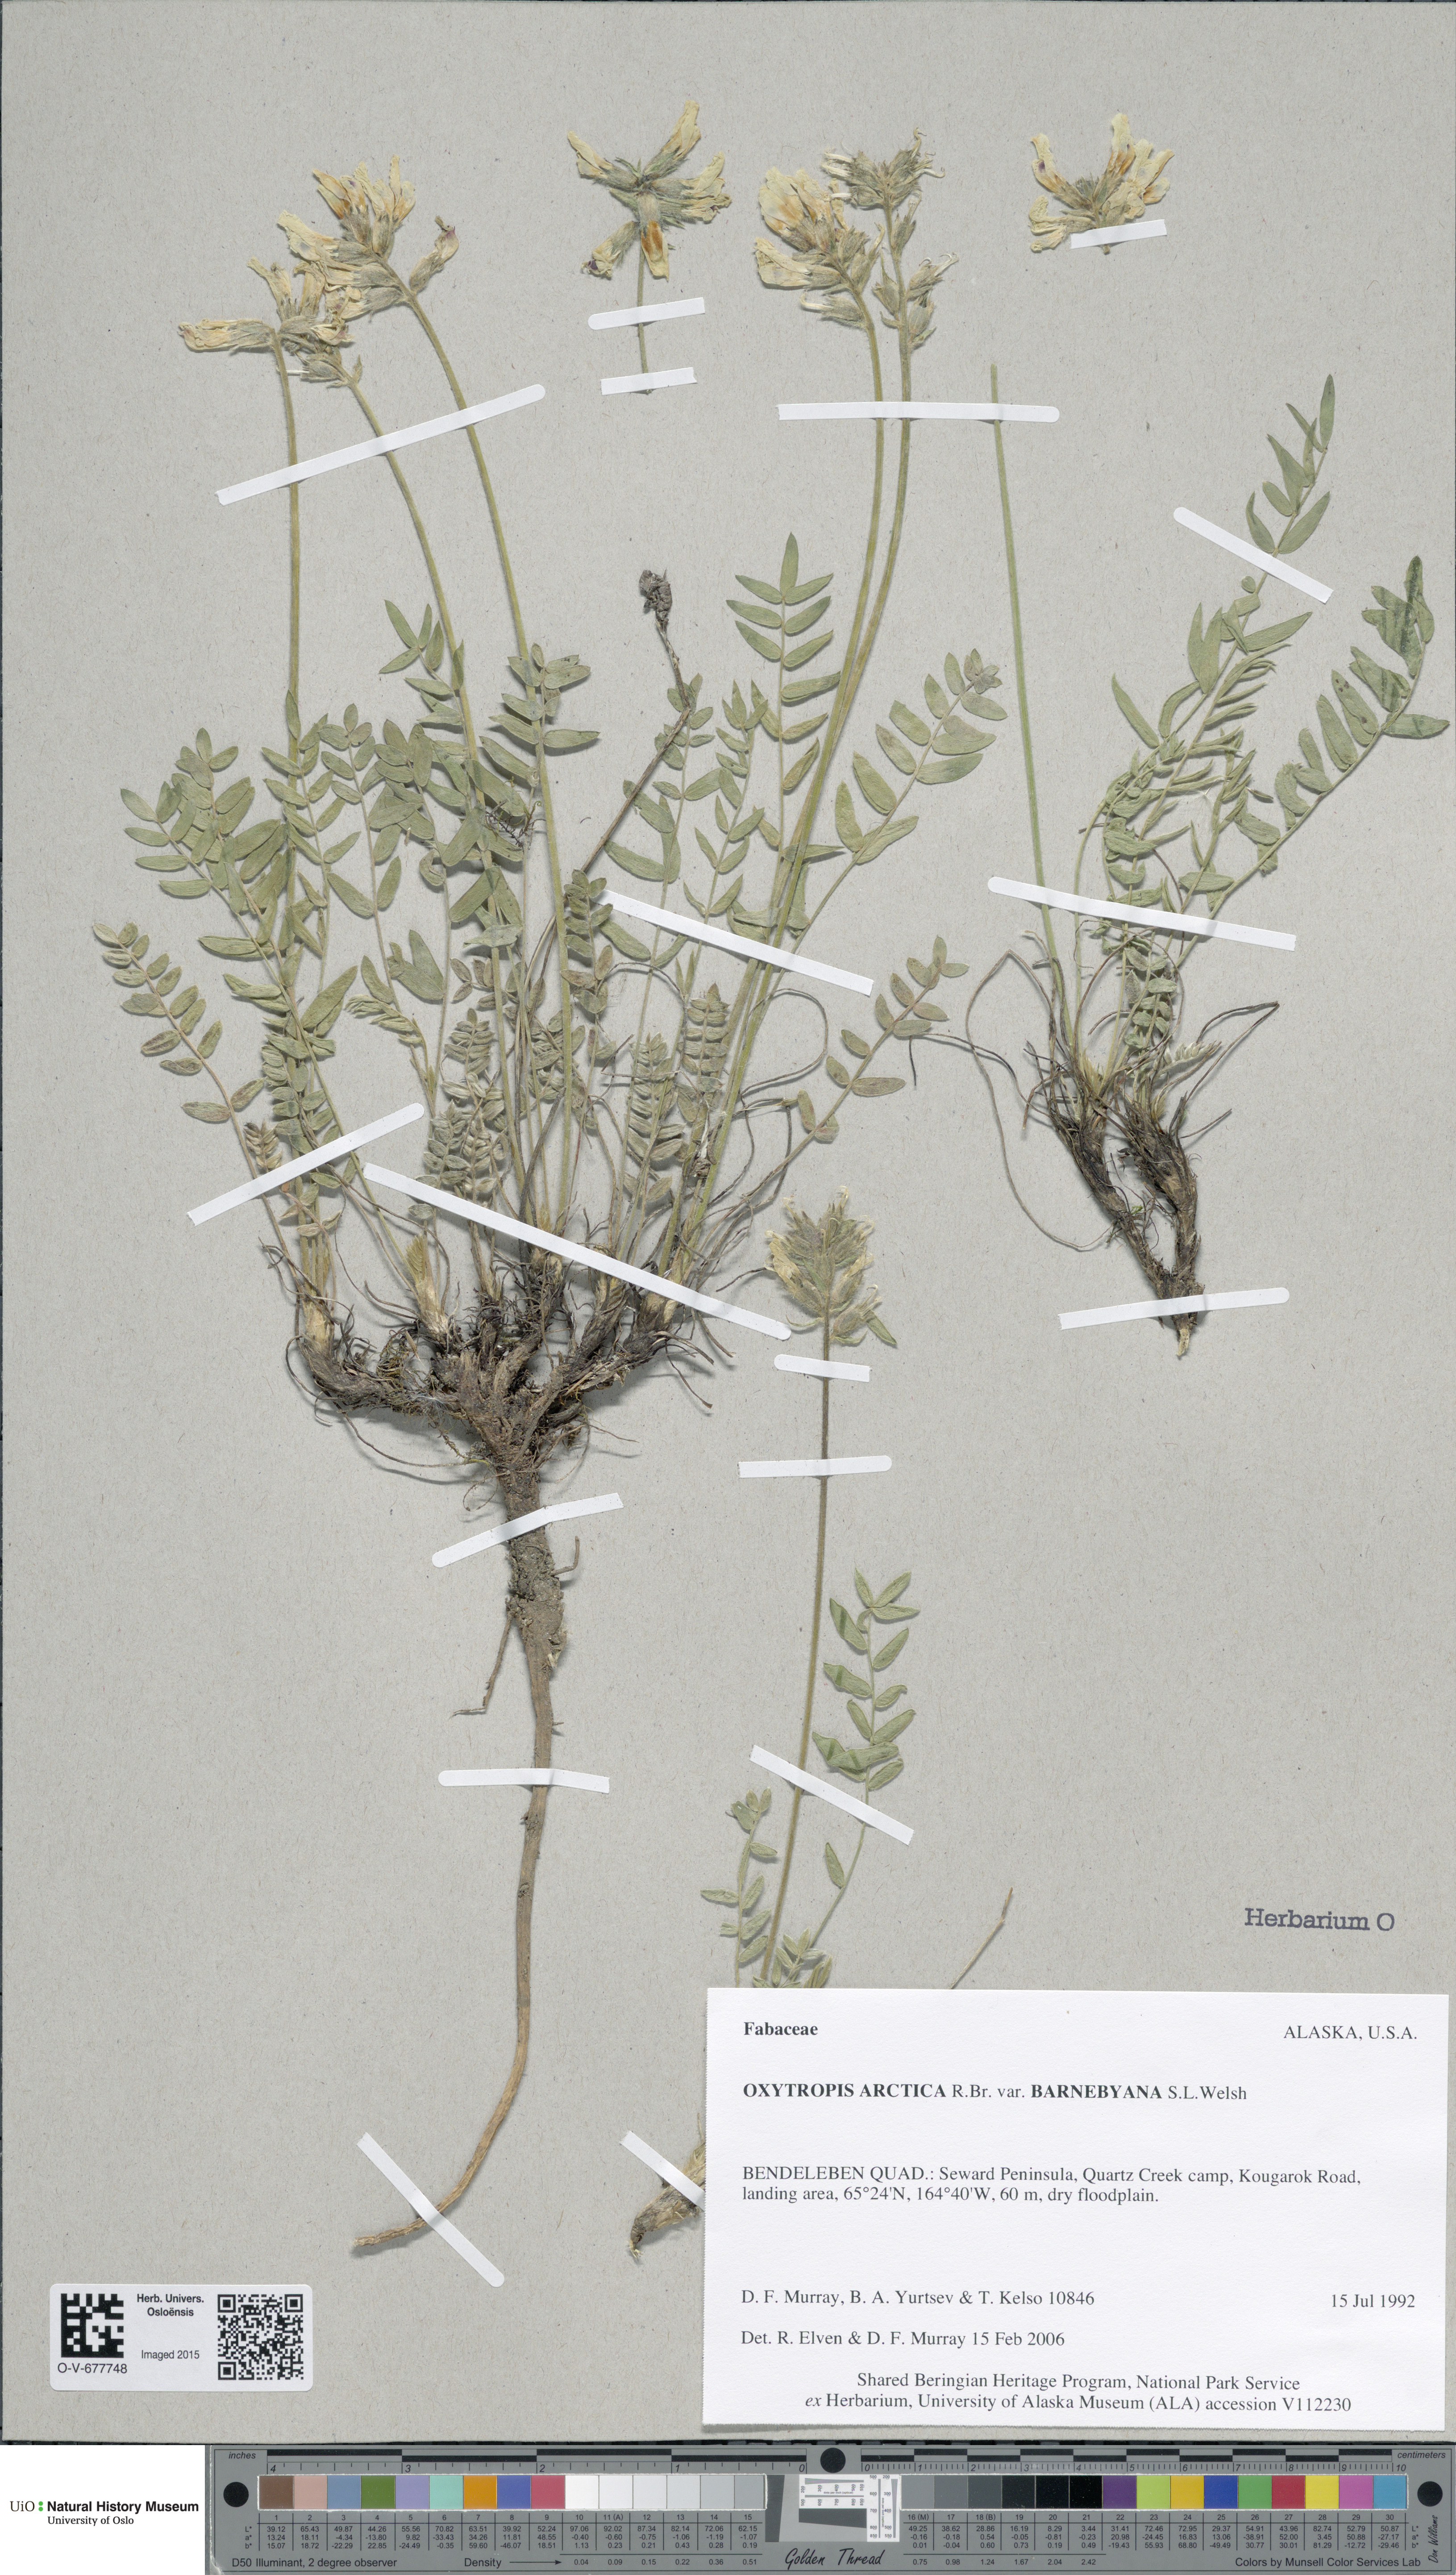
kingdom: Plantae
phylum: Tracheophyta
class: Magnoliopsida
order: Fabales
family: Fabaceae
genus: Oxytropis
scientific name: Oxytropis arctica
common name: Arctic locoweed
